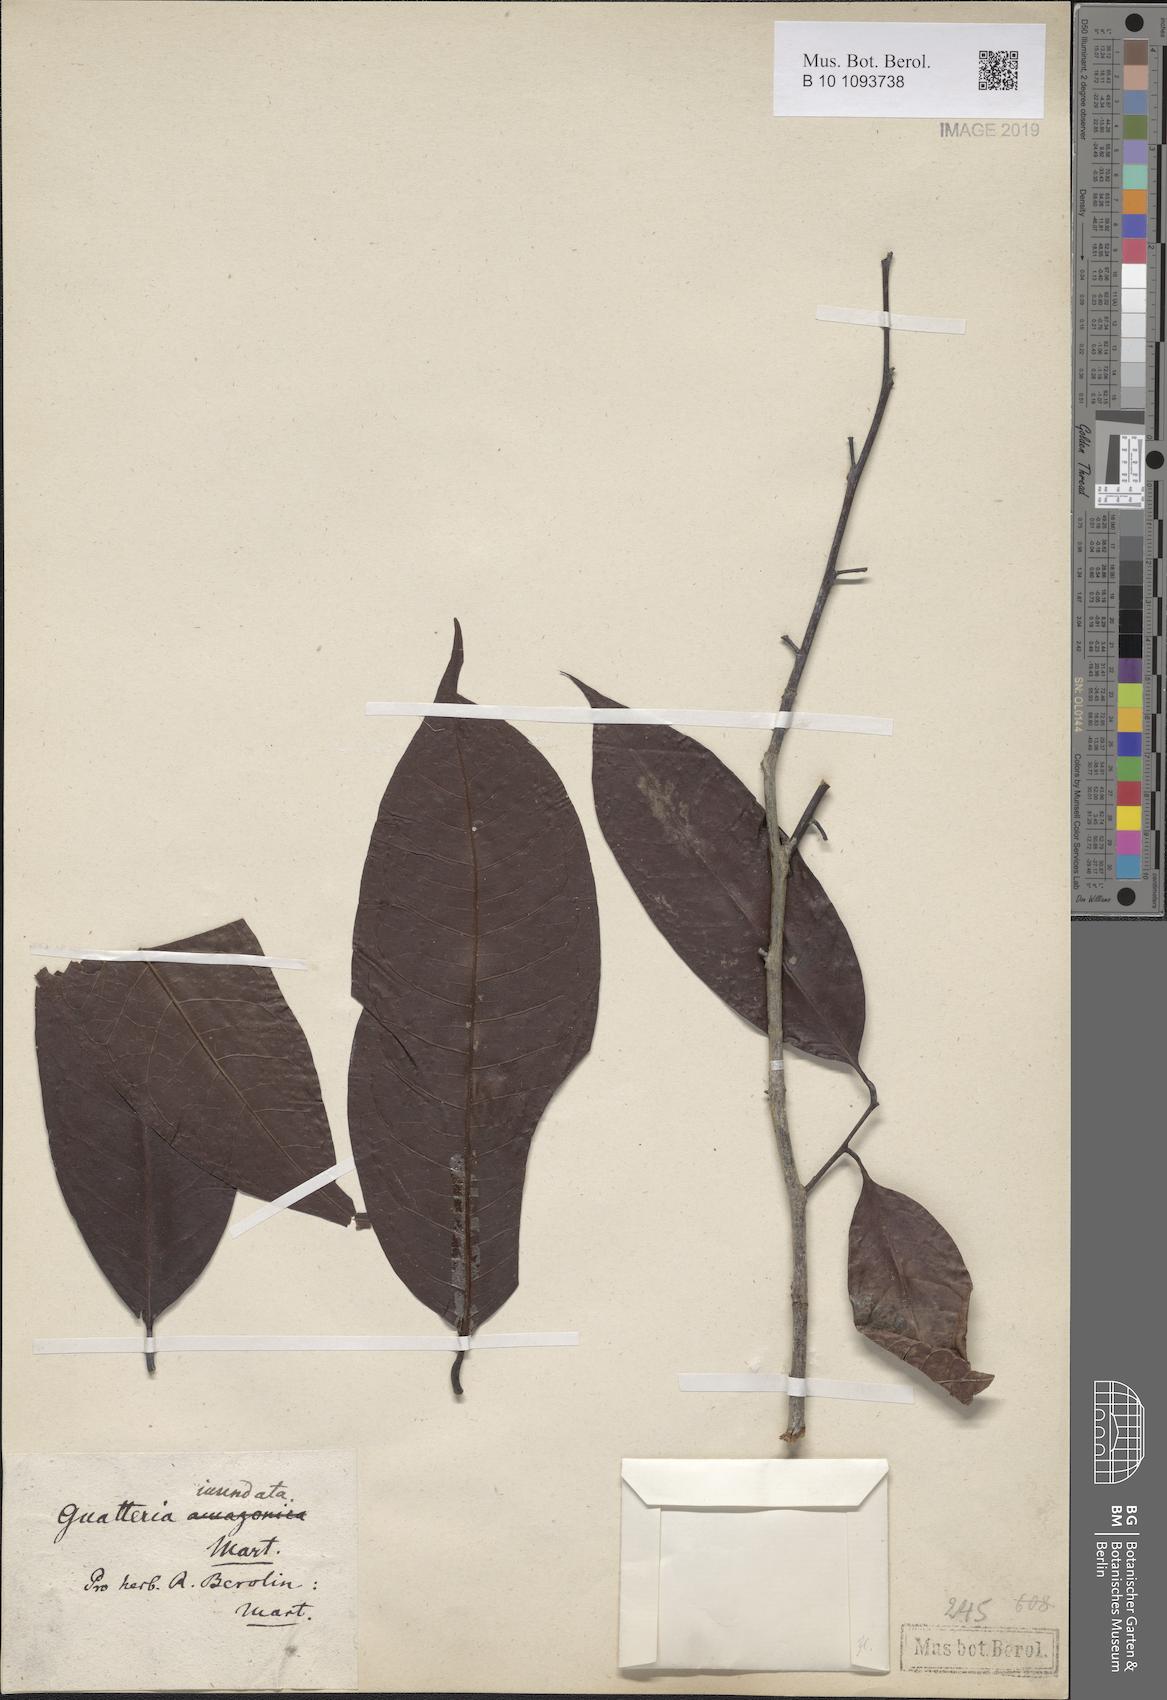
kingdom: Plantae
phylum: Tracheophyta
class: Magnoliopsida
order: Magnoliales
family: Annonaceae
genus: Guatteria
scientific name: Guatteria inundata
